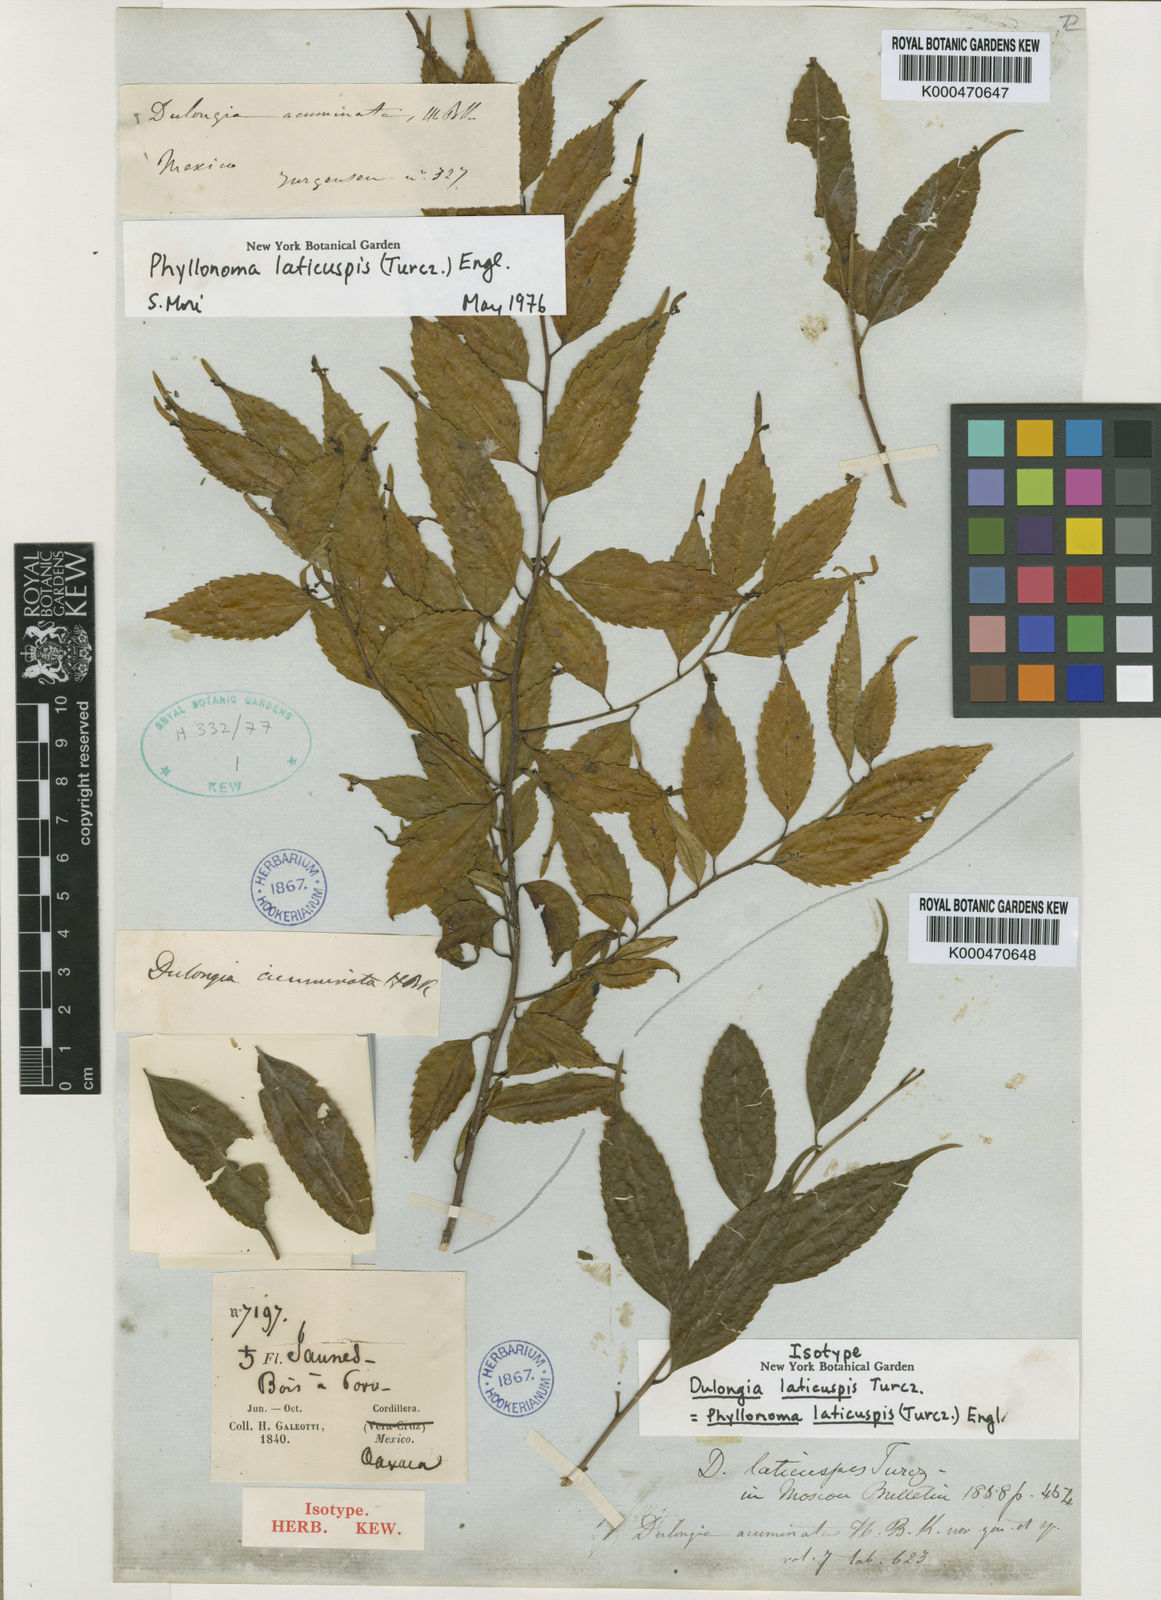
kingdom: Plantae
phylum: Tracheophyta
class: Magnoliopsida
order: Aquifoliales
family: Phyllonomaceae
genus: Phyllonoma
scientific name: Phyllonoma laticuspis
